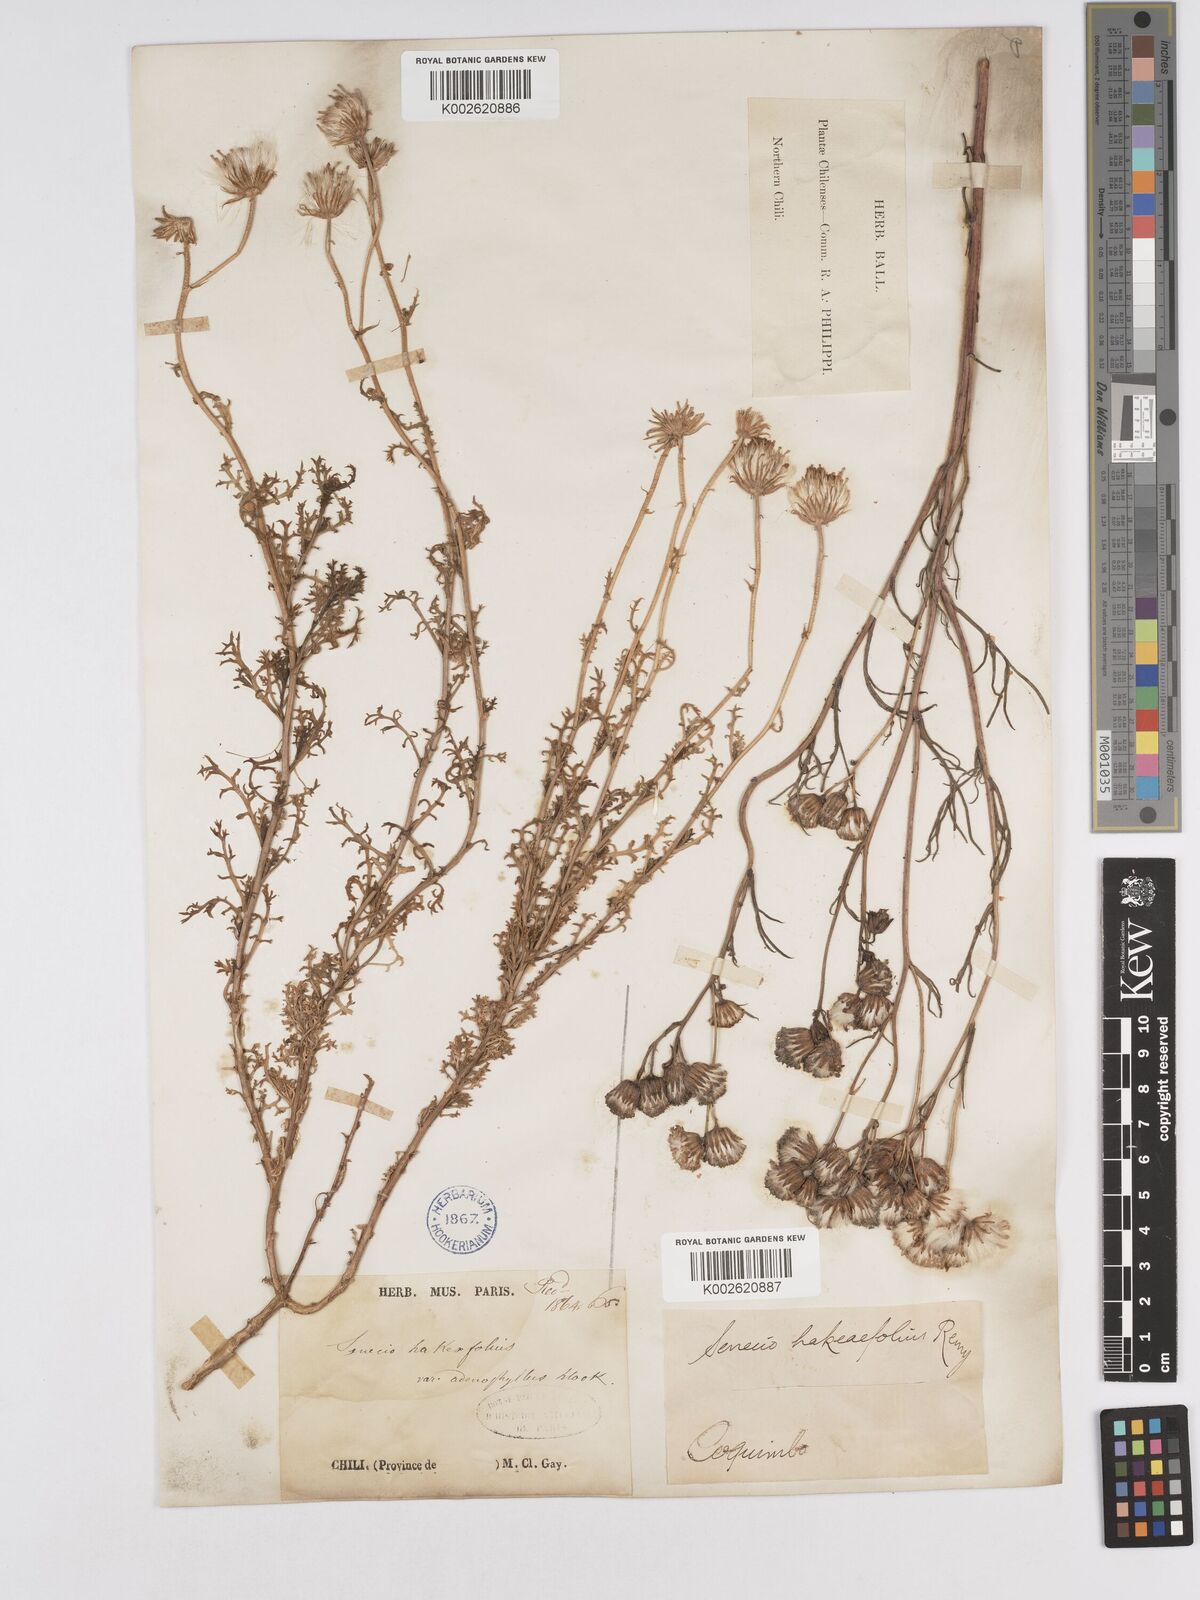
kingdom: Plantae
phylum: Tracheophyta
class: Magnoliopsida
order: Asterales
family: Asteraceae
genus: Senecio
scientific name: Senecio hakeifolius
